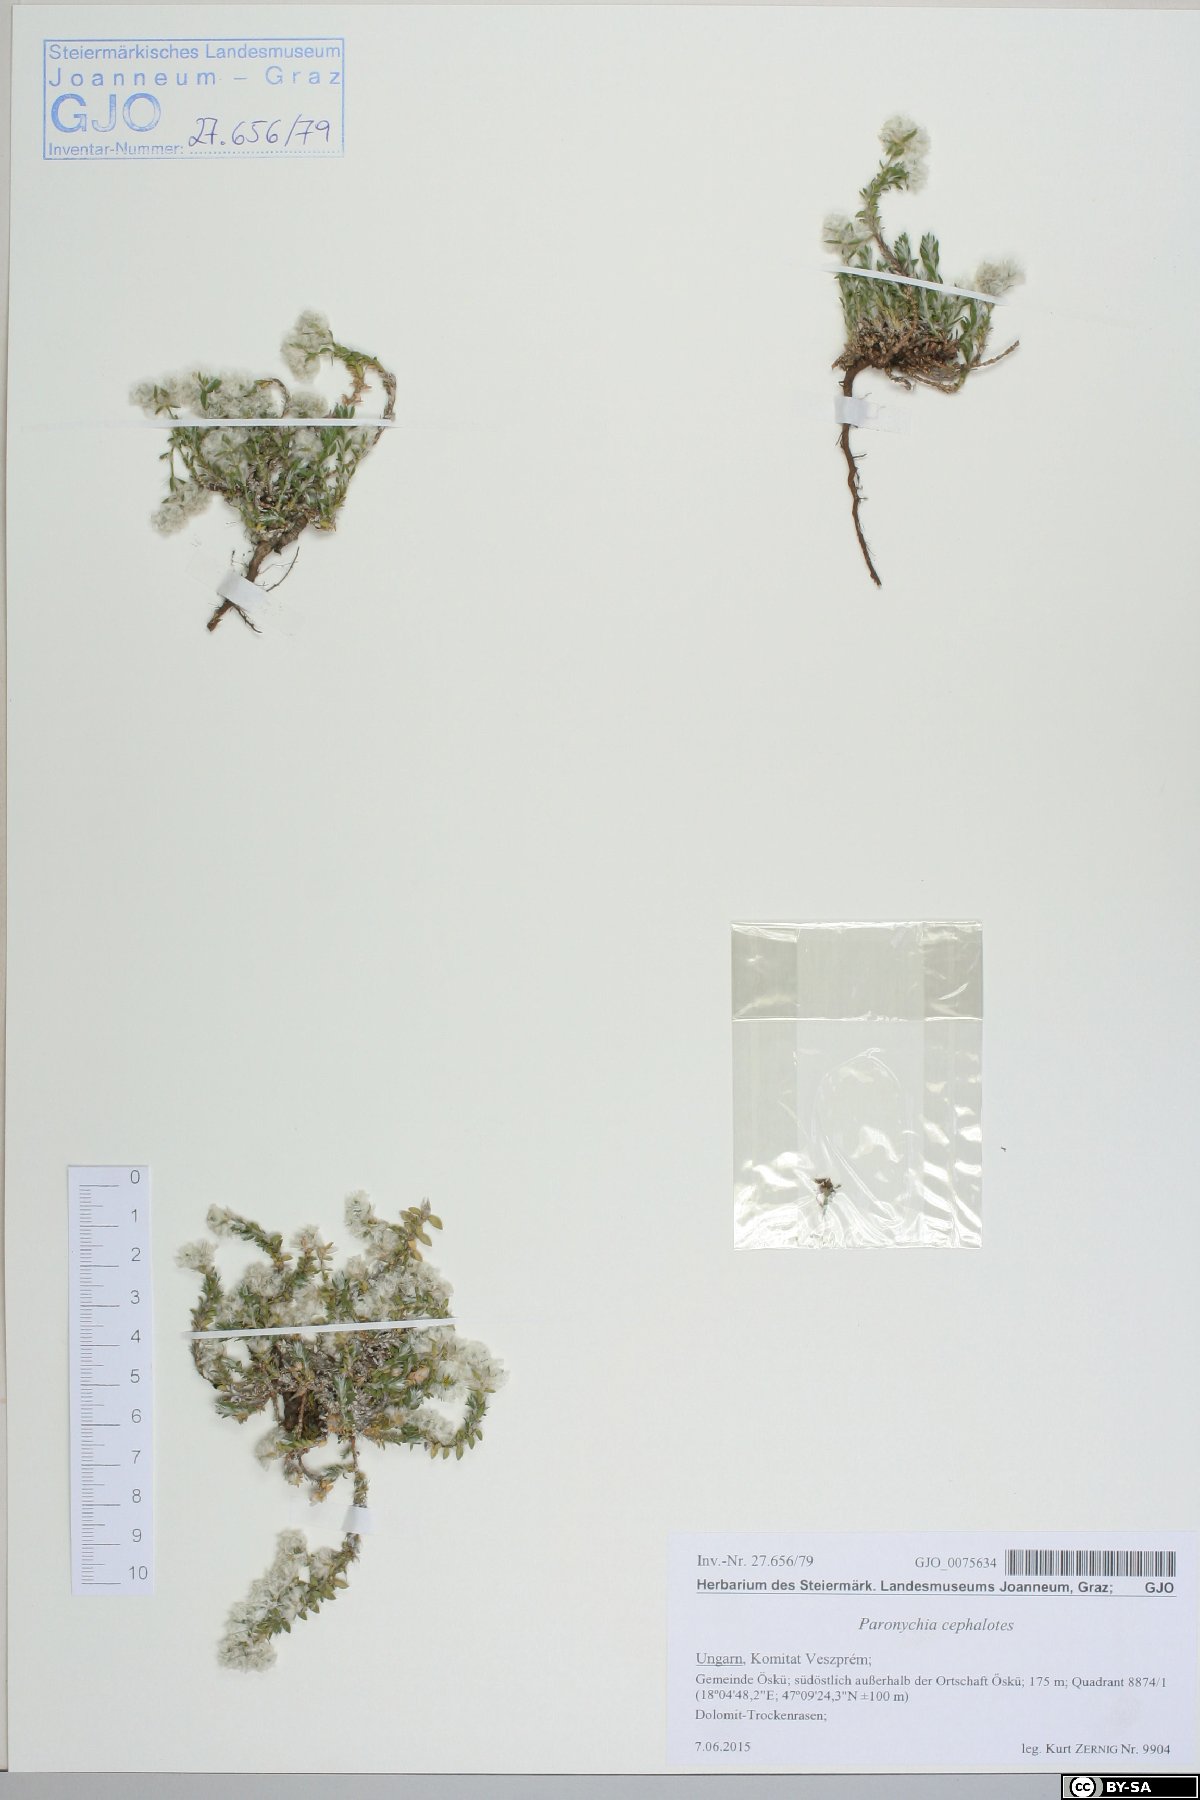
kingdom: Plantae
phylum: Tracheophyta
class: Magnoliopsida
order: Caryophyllales
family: Caryophyllaceae
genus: Paronychia
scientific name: Paronychia cephalotes
